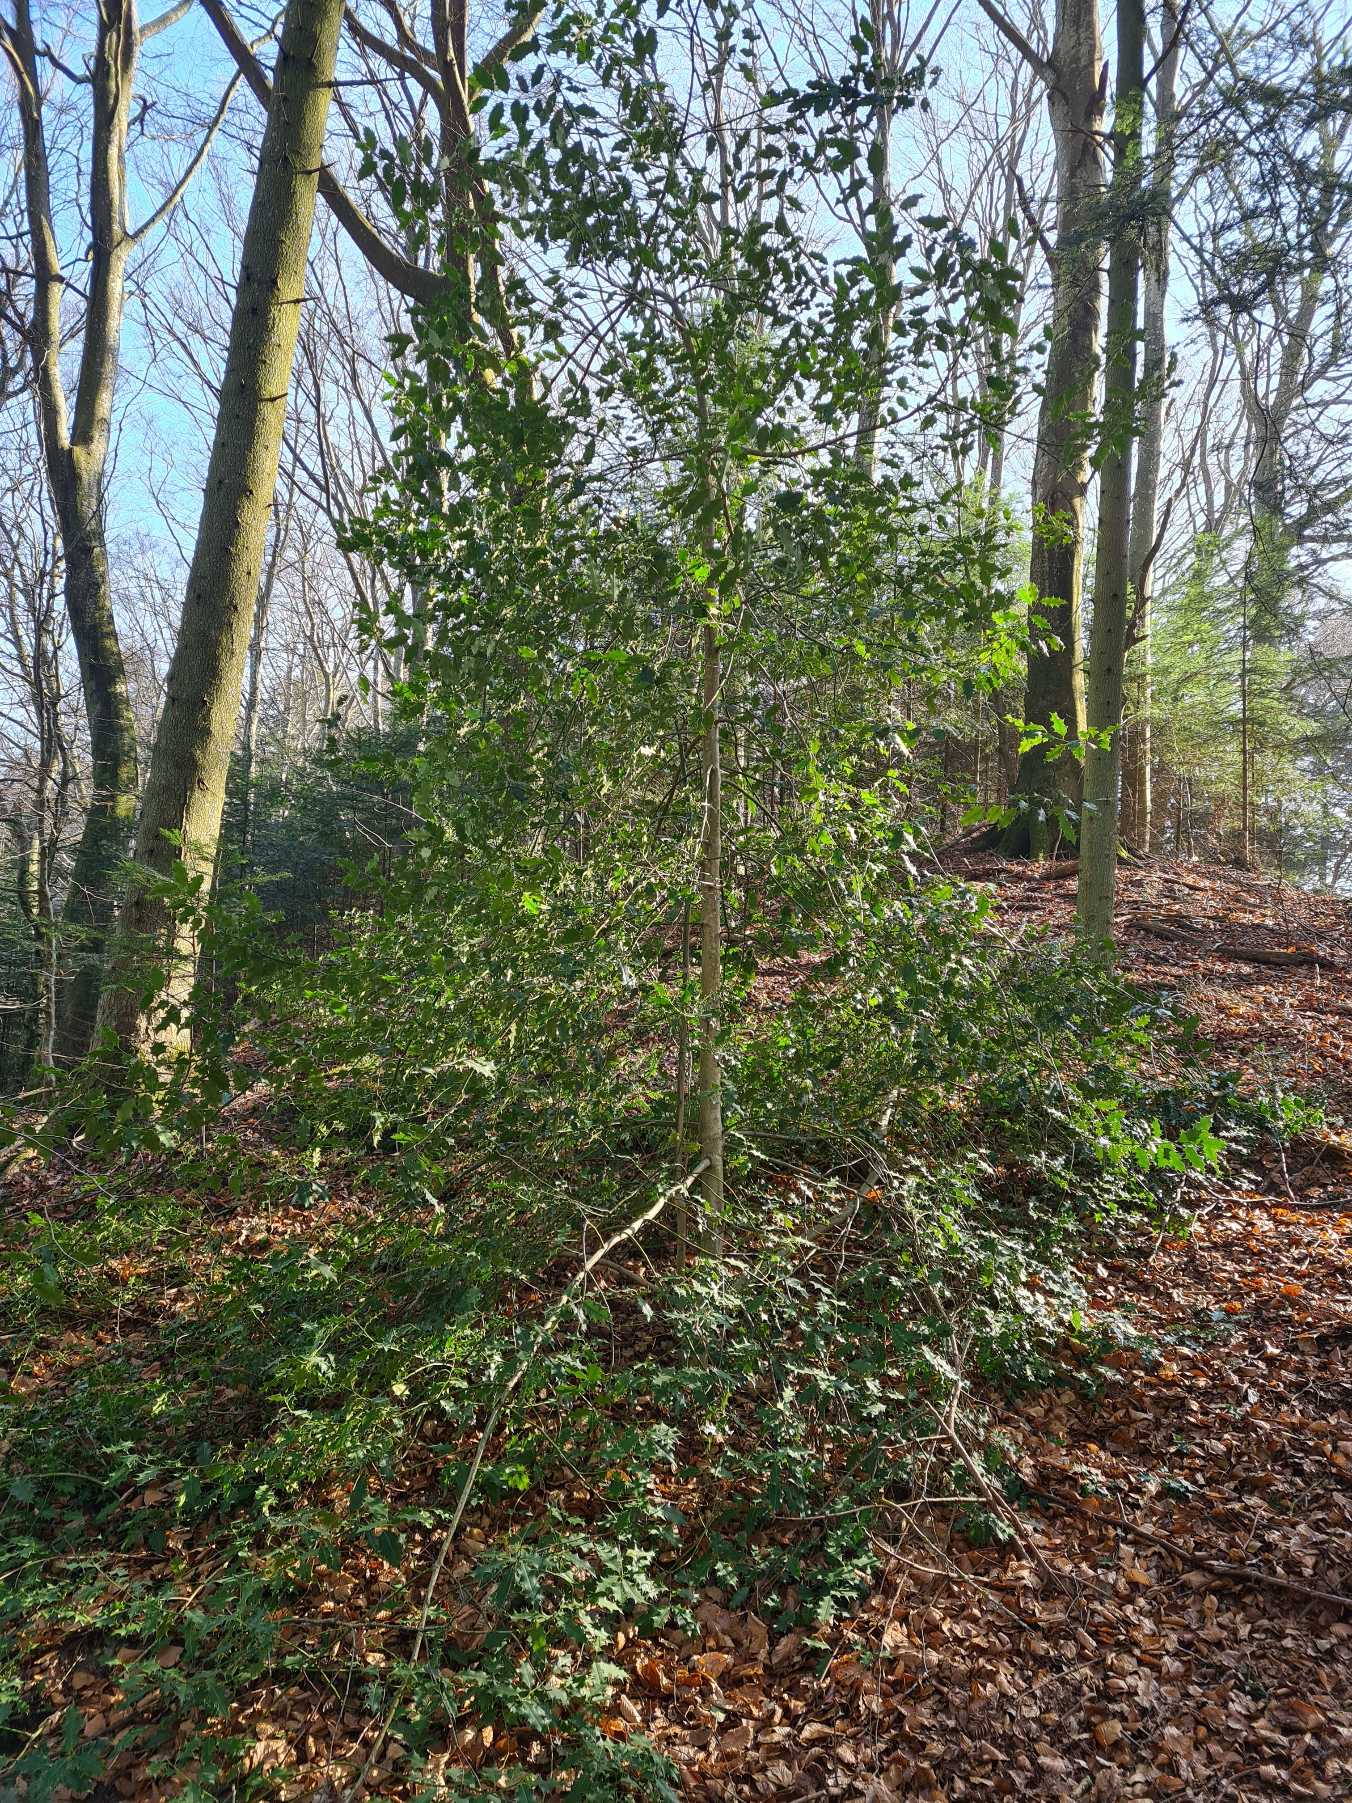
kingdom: Plantae
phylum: Tracheophyta
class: Magnoliopsida
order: Aquifoliales
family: Aquifoliaceae
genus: Ilex
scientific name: Ilex aquifolium
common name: Kristtorn
